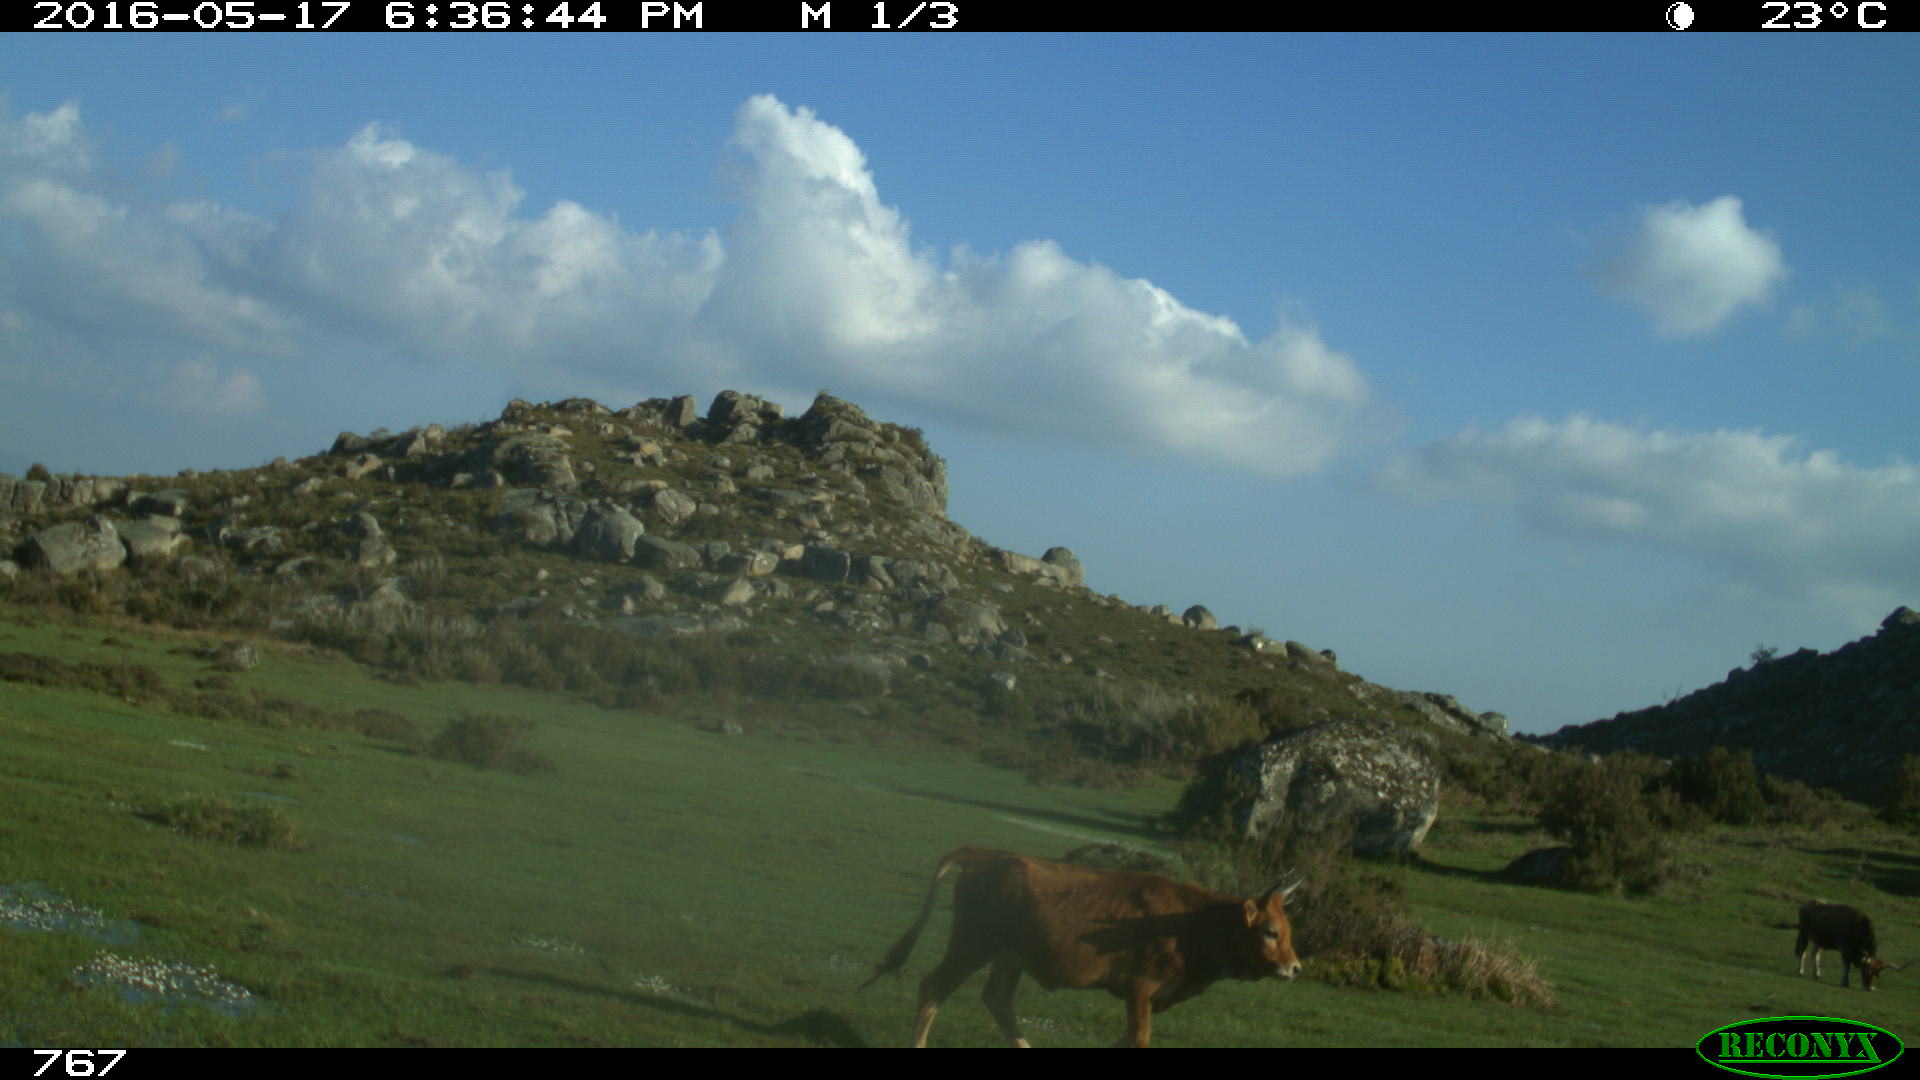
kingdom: Animalia
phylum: Chordata
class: Mammalia
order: Artiodactyla
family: Bovidae
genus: Bos
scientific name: Bos taurus
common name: Domesticated cattle
